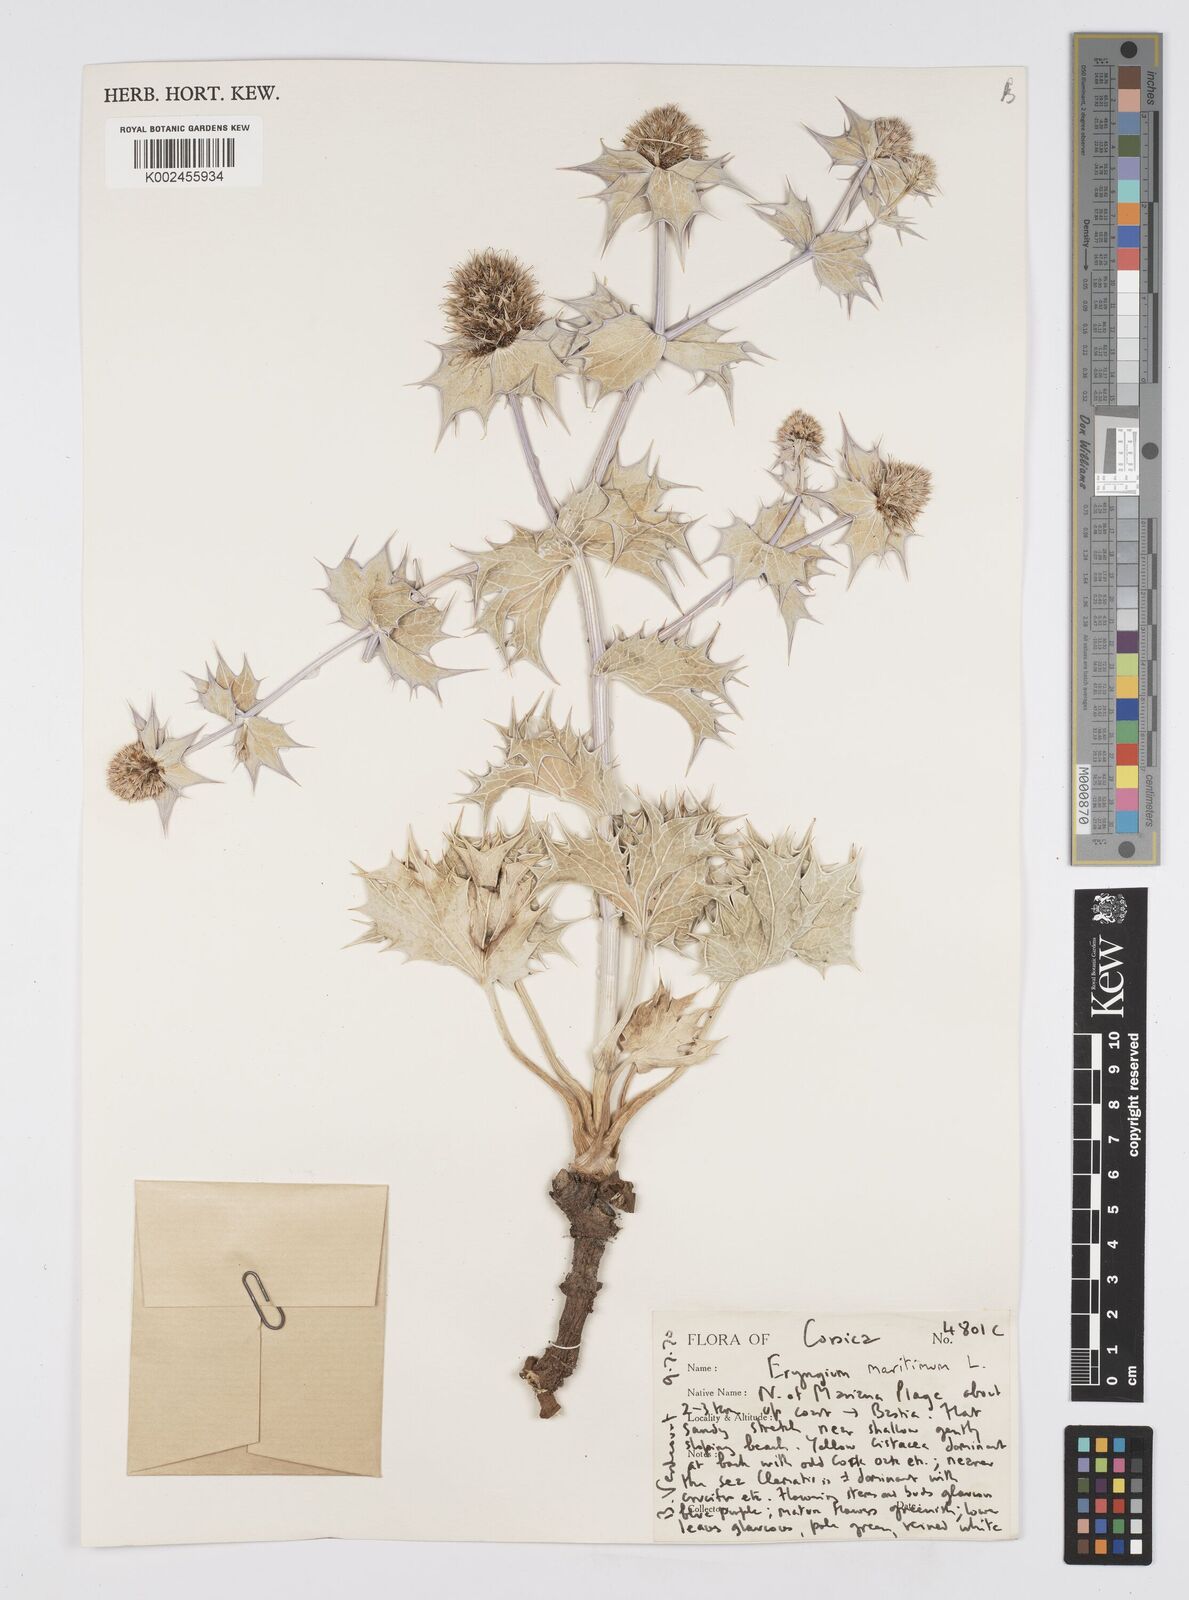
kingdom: Plantae
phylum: Tracheophyta
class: Magnoliopsida
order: Apiales
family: Apiaceae
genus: Eryngium
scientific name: Eryngium maritimum
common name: Sea-holly
